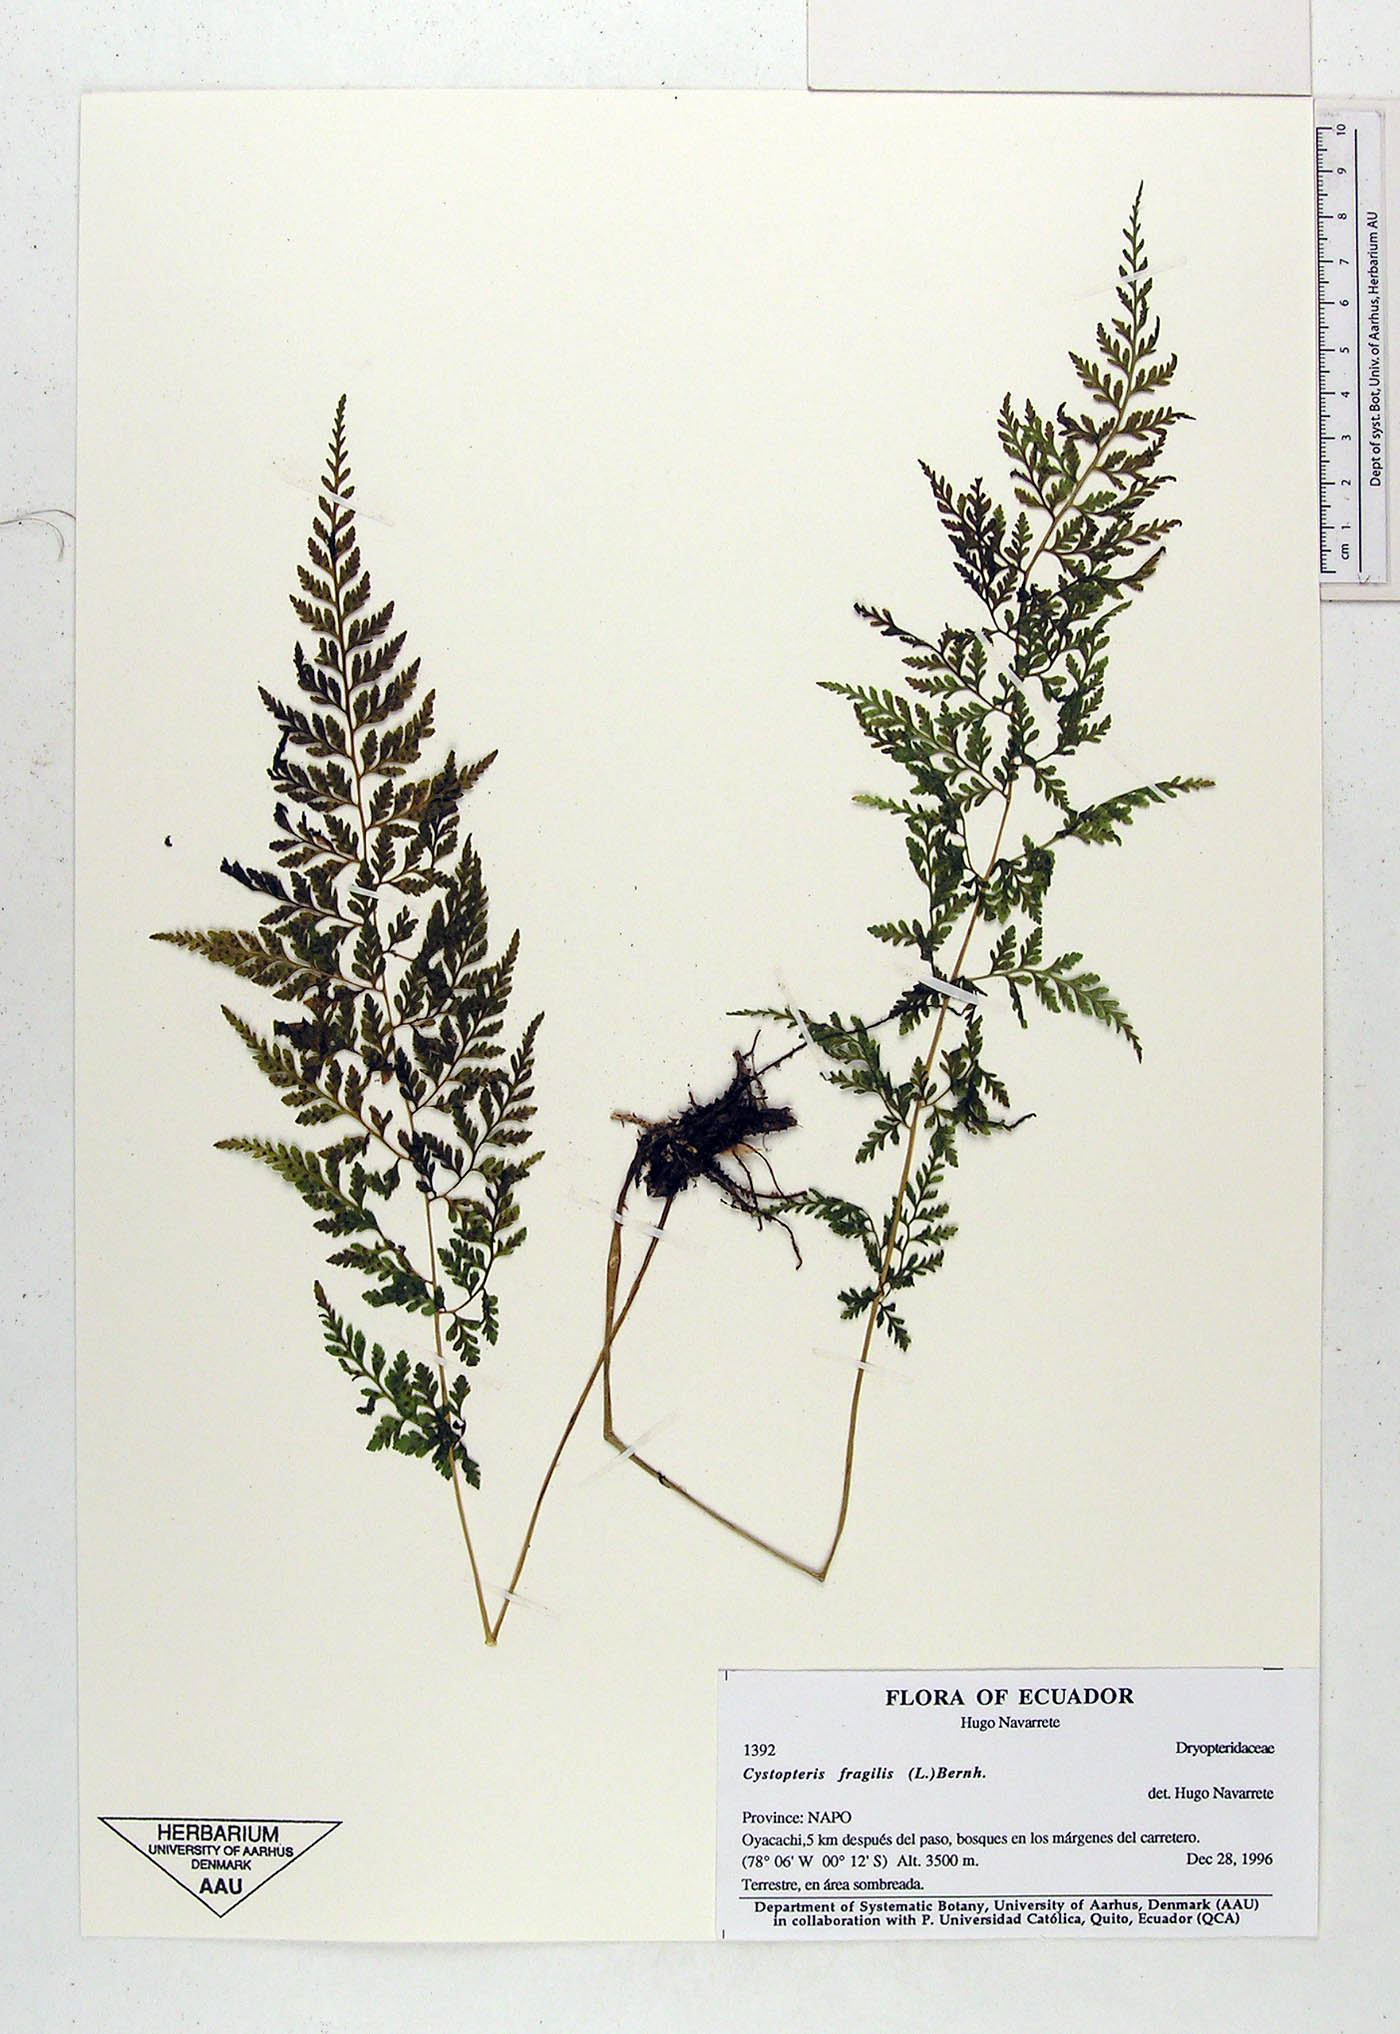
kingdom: Plantae
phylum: Tracheophyta
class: Polypodiopsida
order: Polypodiales
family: Cystopteridaceae
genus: Cystopteris
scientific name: Cystopteris fragilis
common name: Brittle bladder fern
